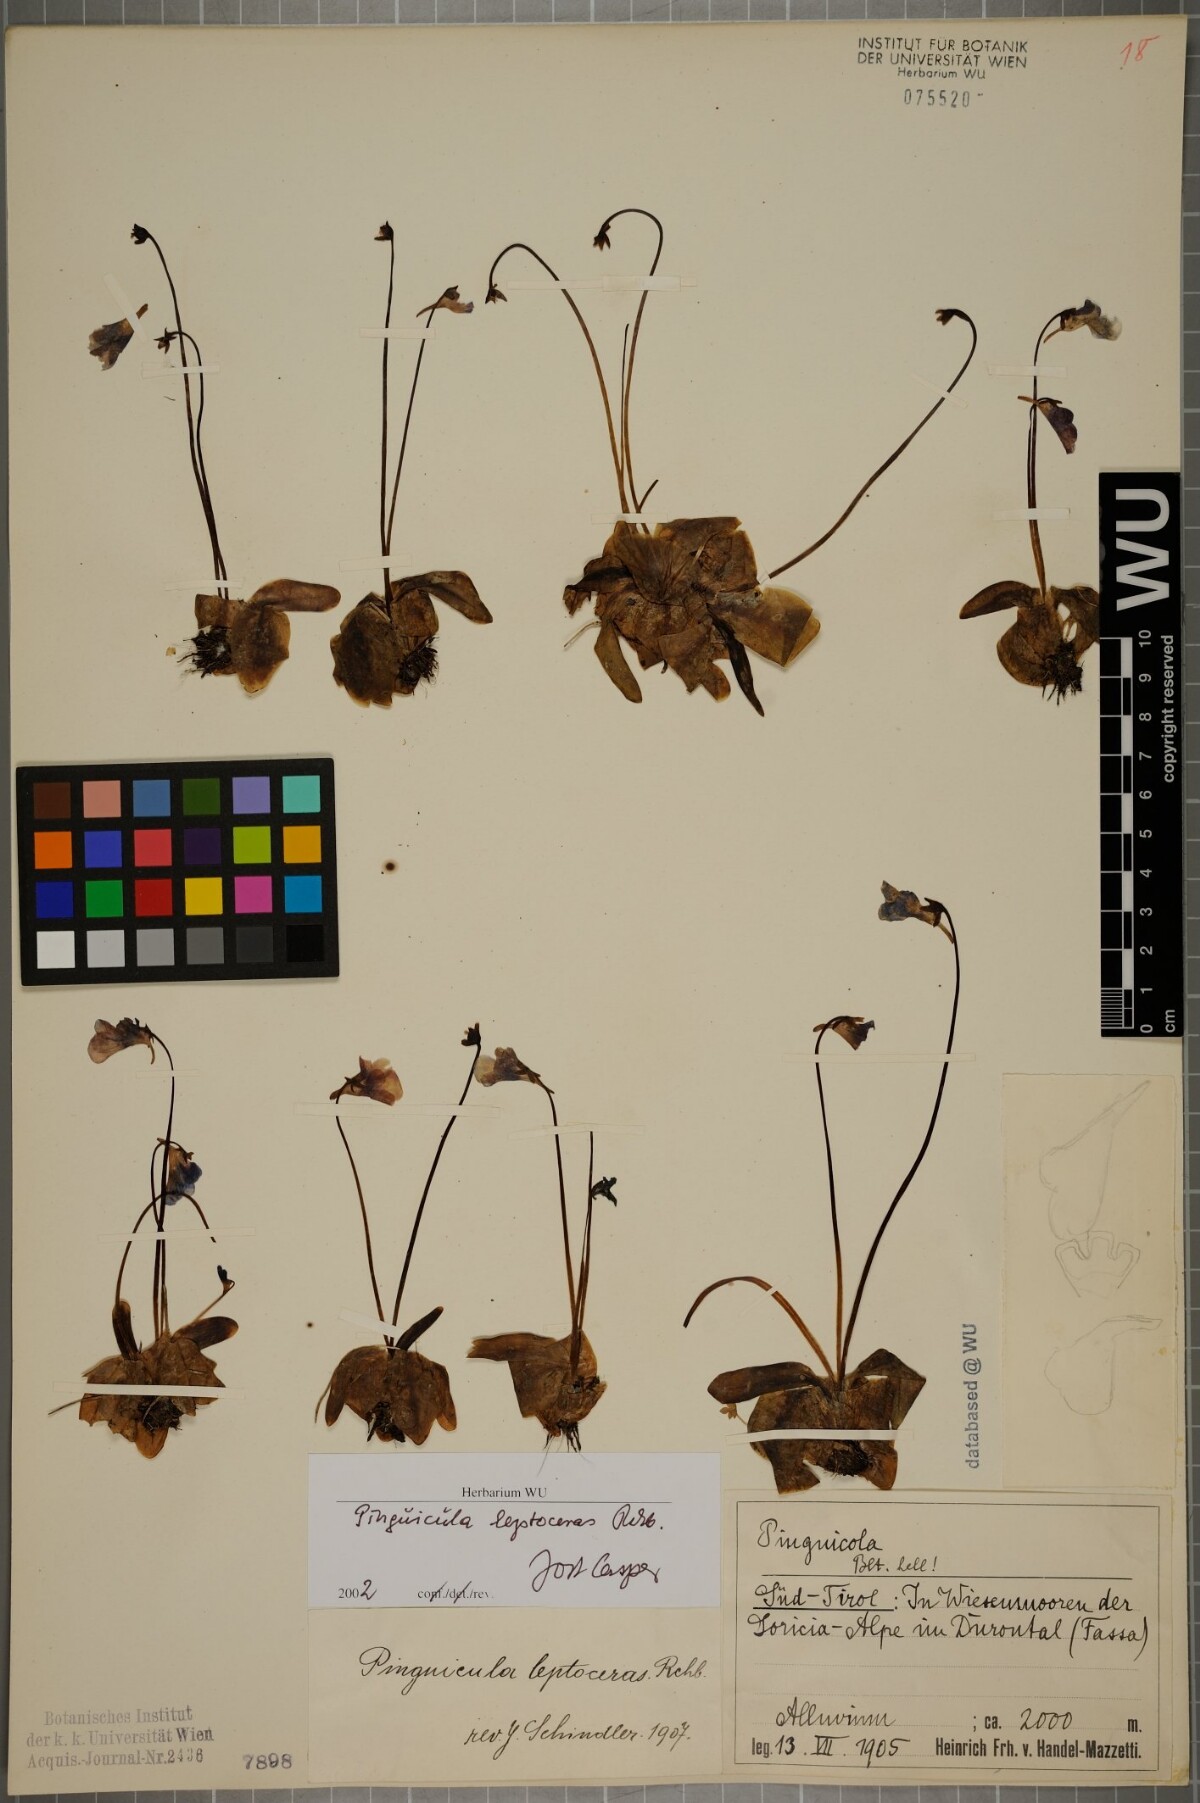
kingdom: Plantae
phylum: Tracheophyta
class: Magnoliopsida
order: Lamiales
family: Lentibulariaceae
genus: Pinguicula
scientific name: Pinguicula leptoceras
